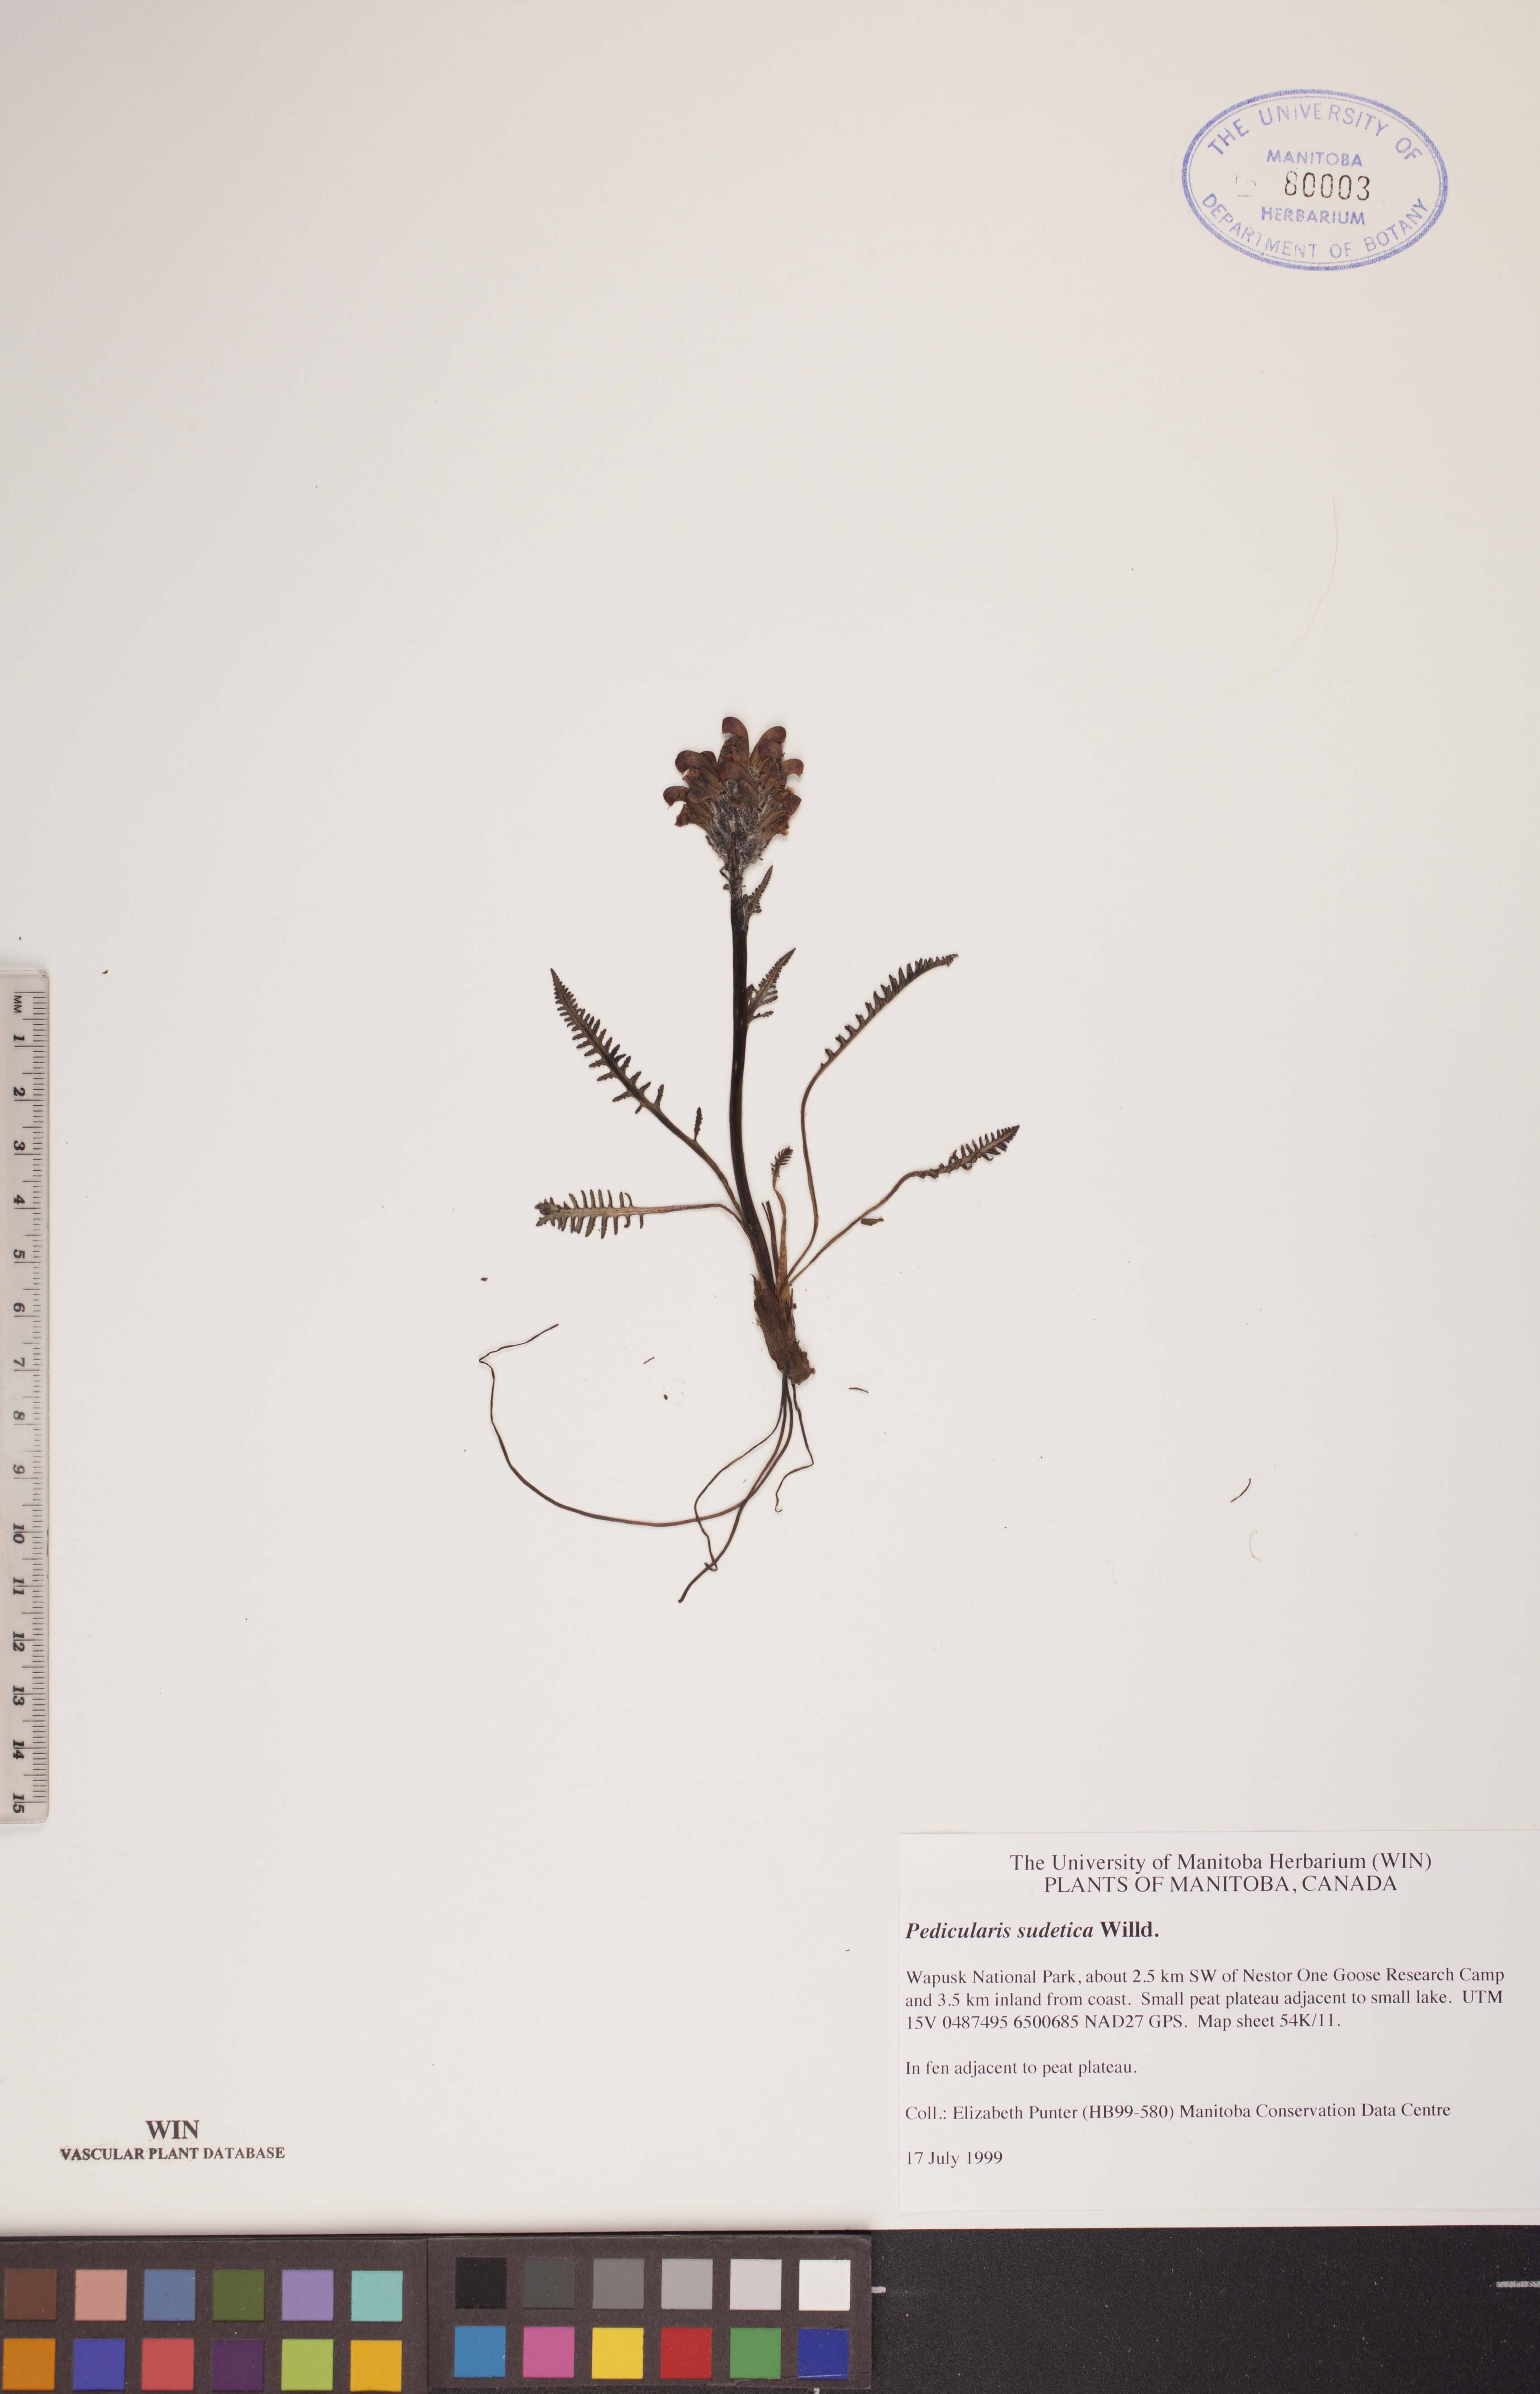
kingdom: Plantae
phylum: Tracheophyta
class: Magnoliopsida
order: Lamiales
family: Orobanchaceae
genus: Pedicularis
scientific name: Pedicularis sudetica
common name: Sudeten lousewort
